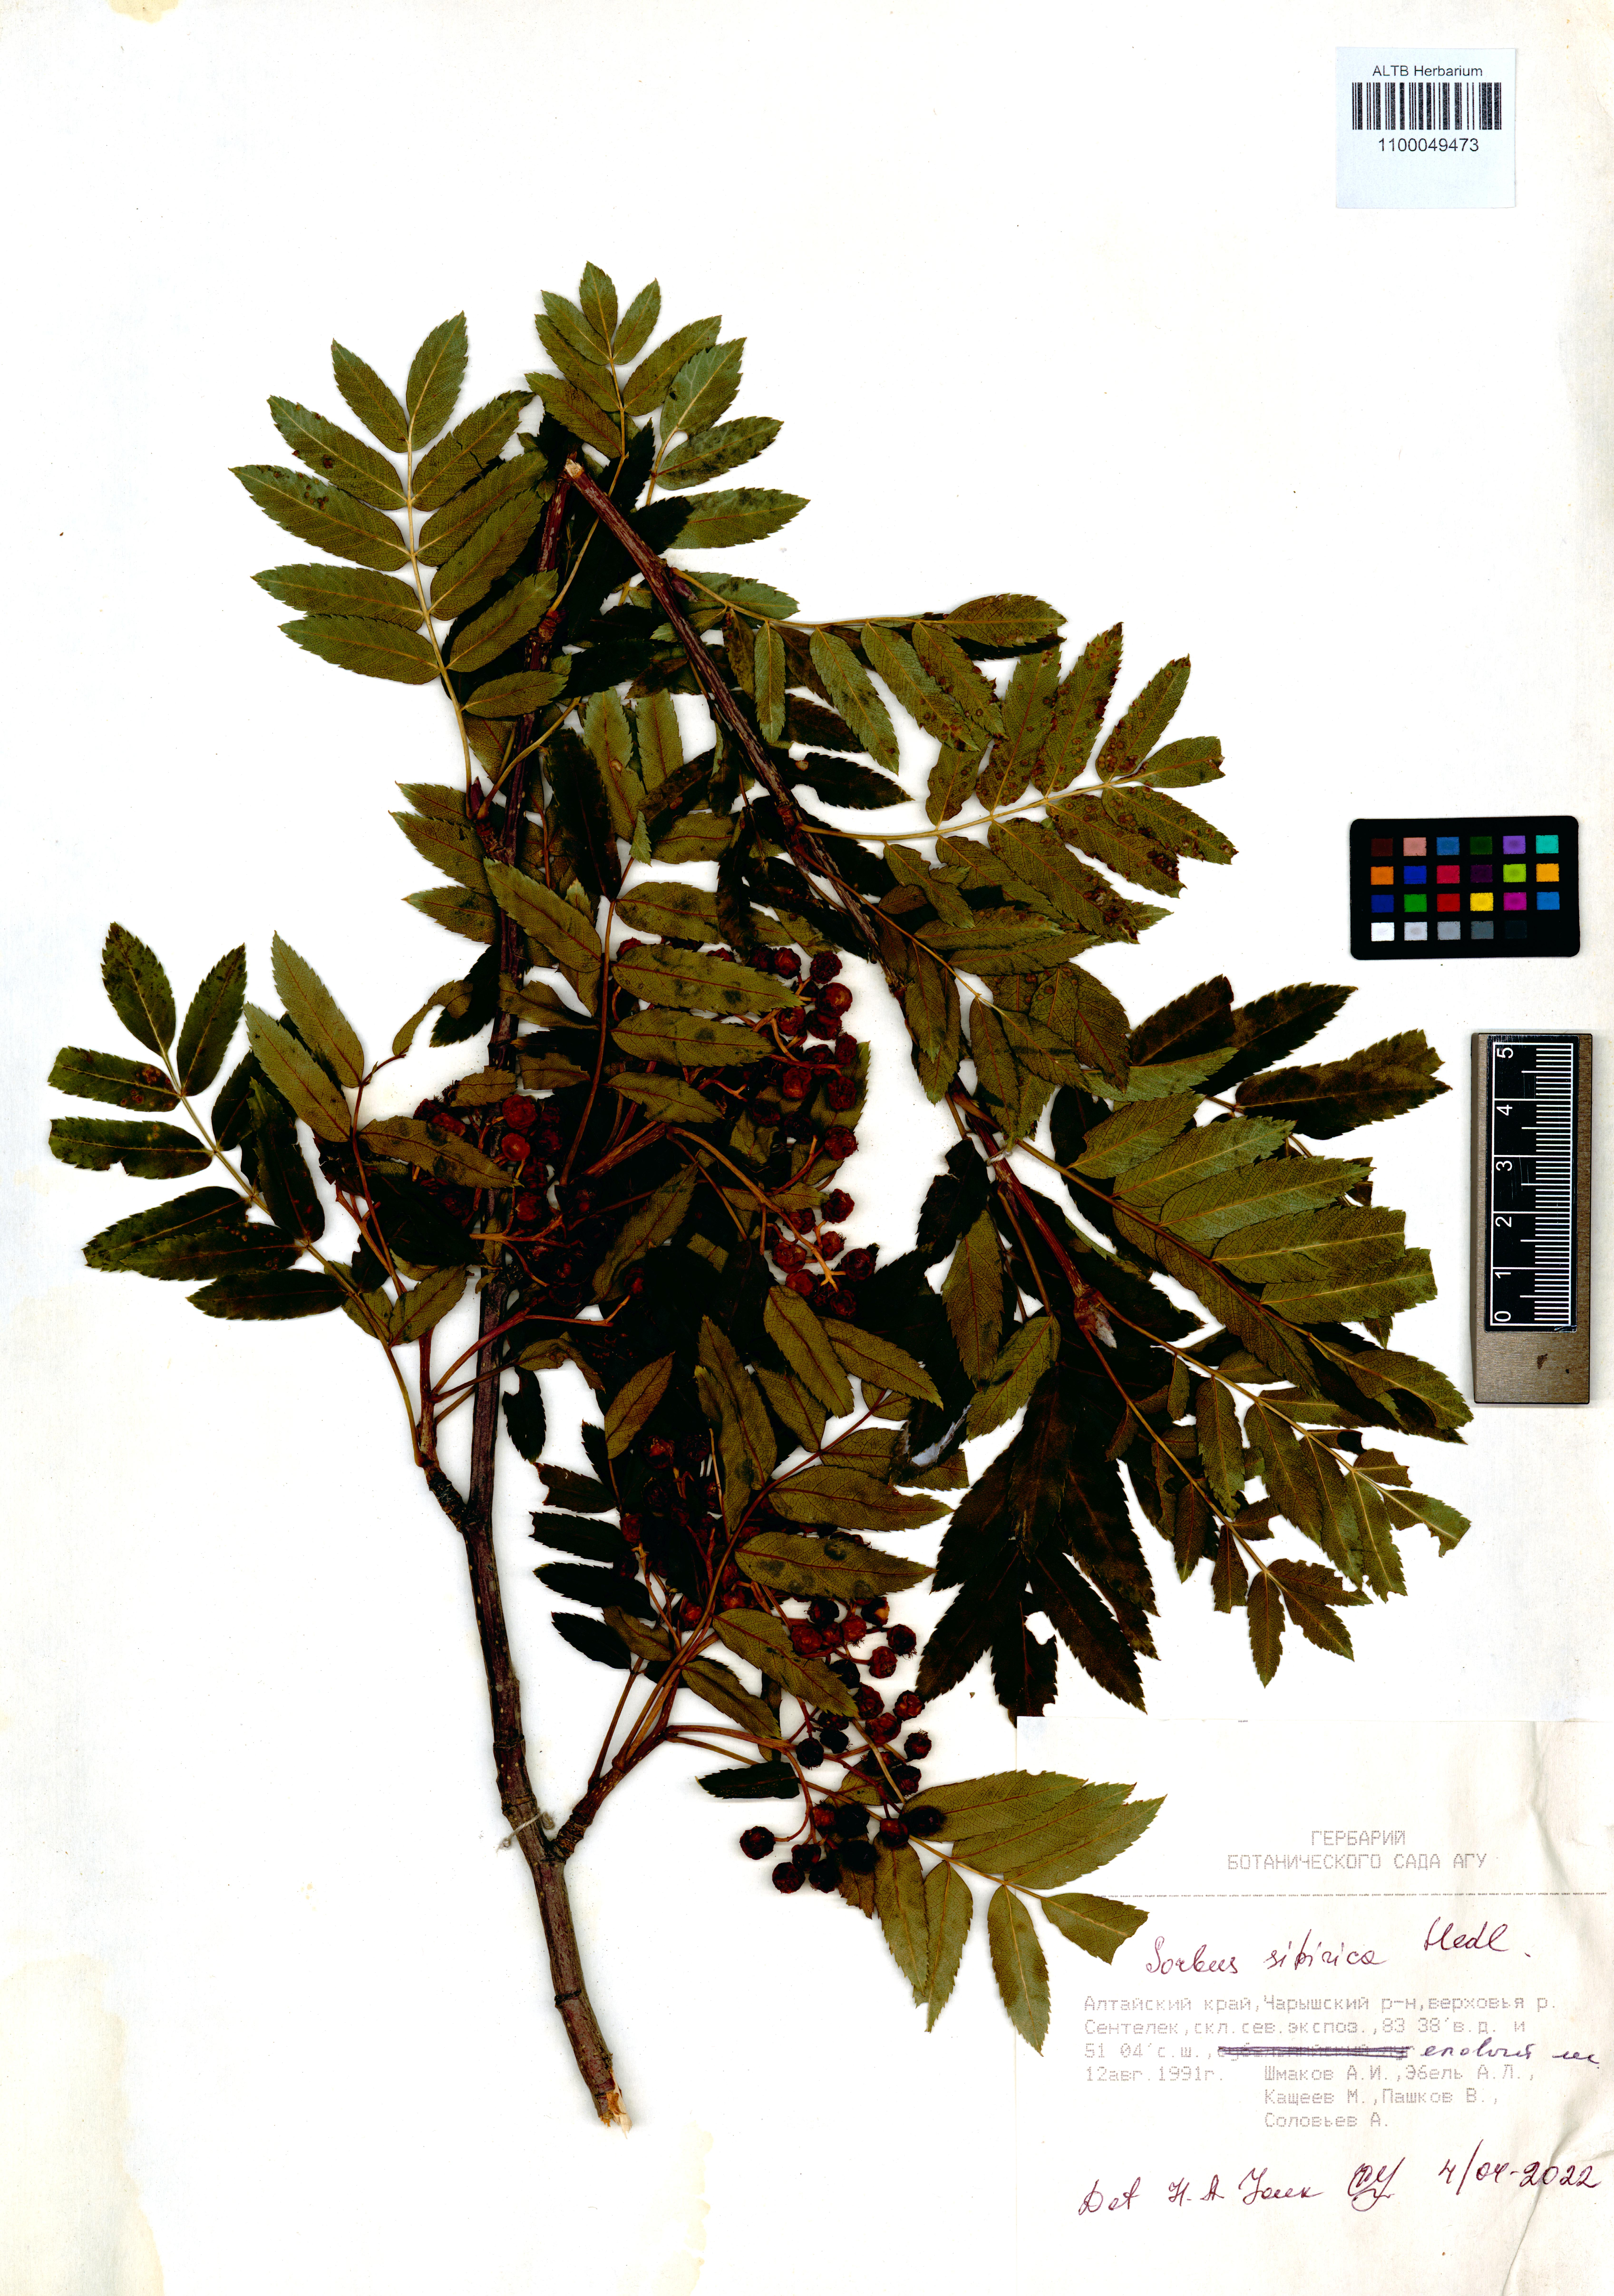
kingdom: Plantae
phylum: Tracheophyta
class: Magnoliopsida
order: Rosales
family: Rosaceae
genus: Sorbus
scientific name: Sorbus aucuparia
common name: Rowan
